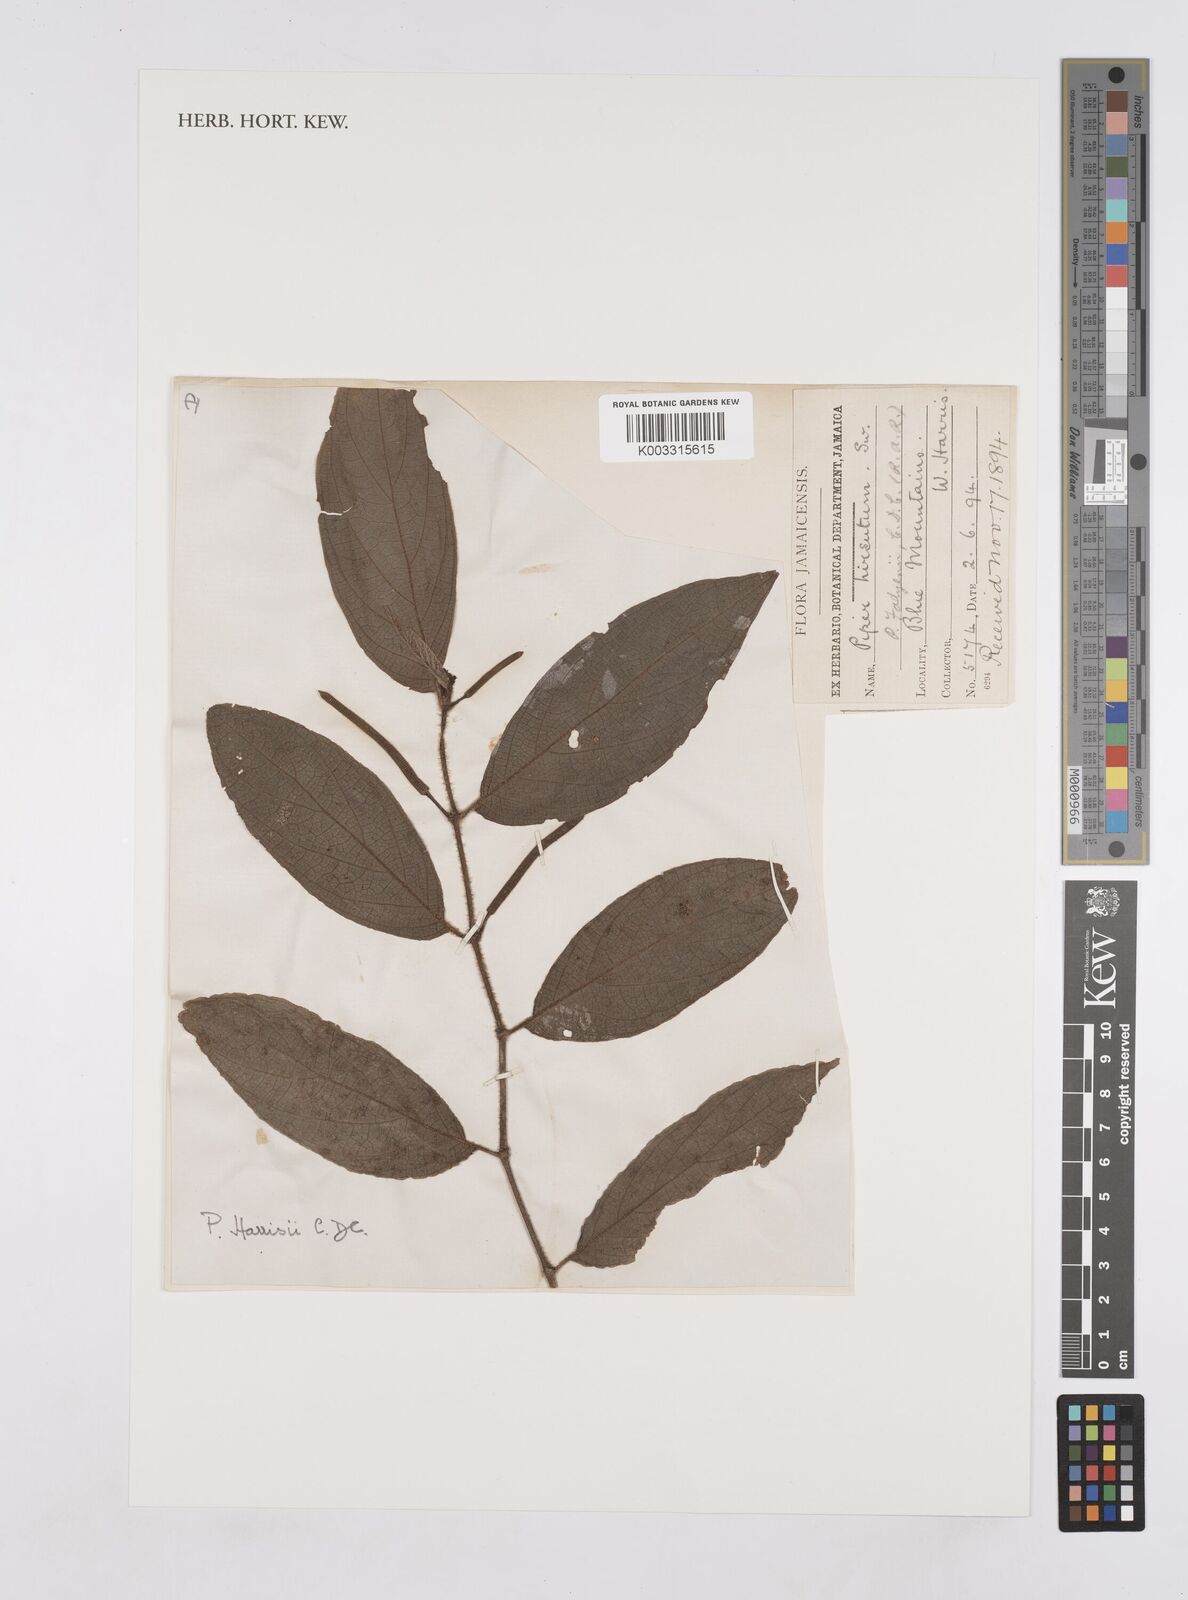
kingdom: Plantae
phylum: Tracheophyta
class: Magnoliopsida
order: Piperales
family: Piperaceae
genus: Piper
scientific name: Piper hispidum
